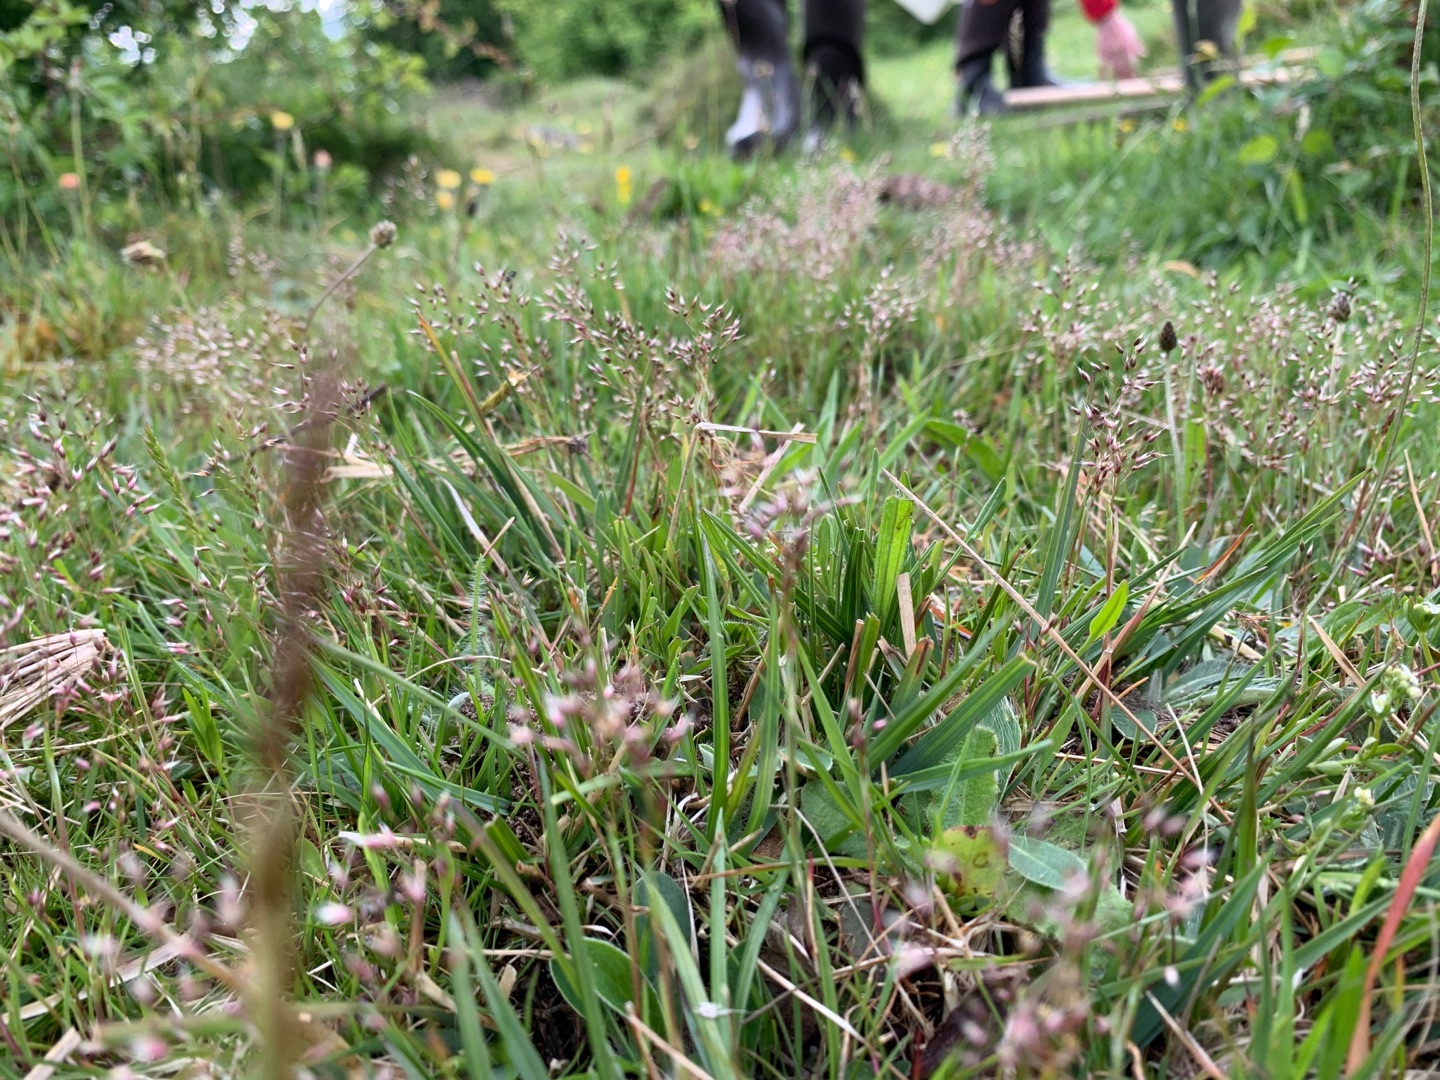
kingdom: Plantae
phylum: Tracheophyta
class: Liliopsida
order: Poales
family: Poaceae
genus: Aira
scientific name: Aira caryophyllea
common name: Udspærret dværgbunke
